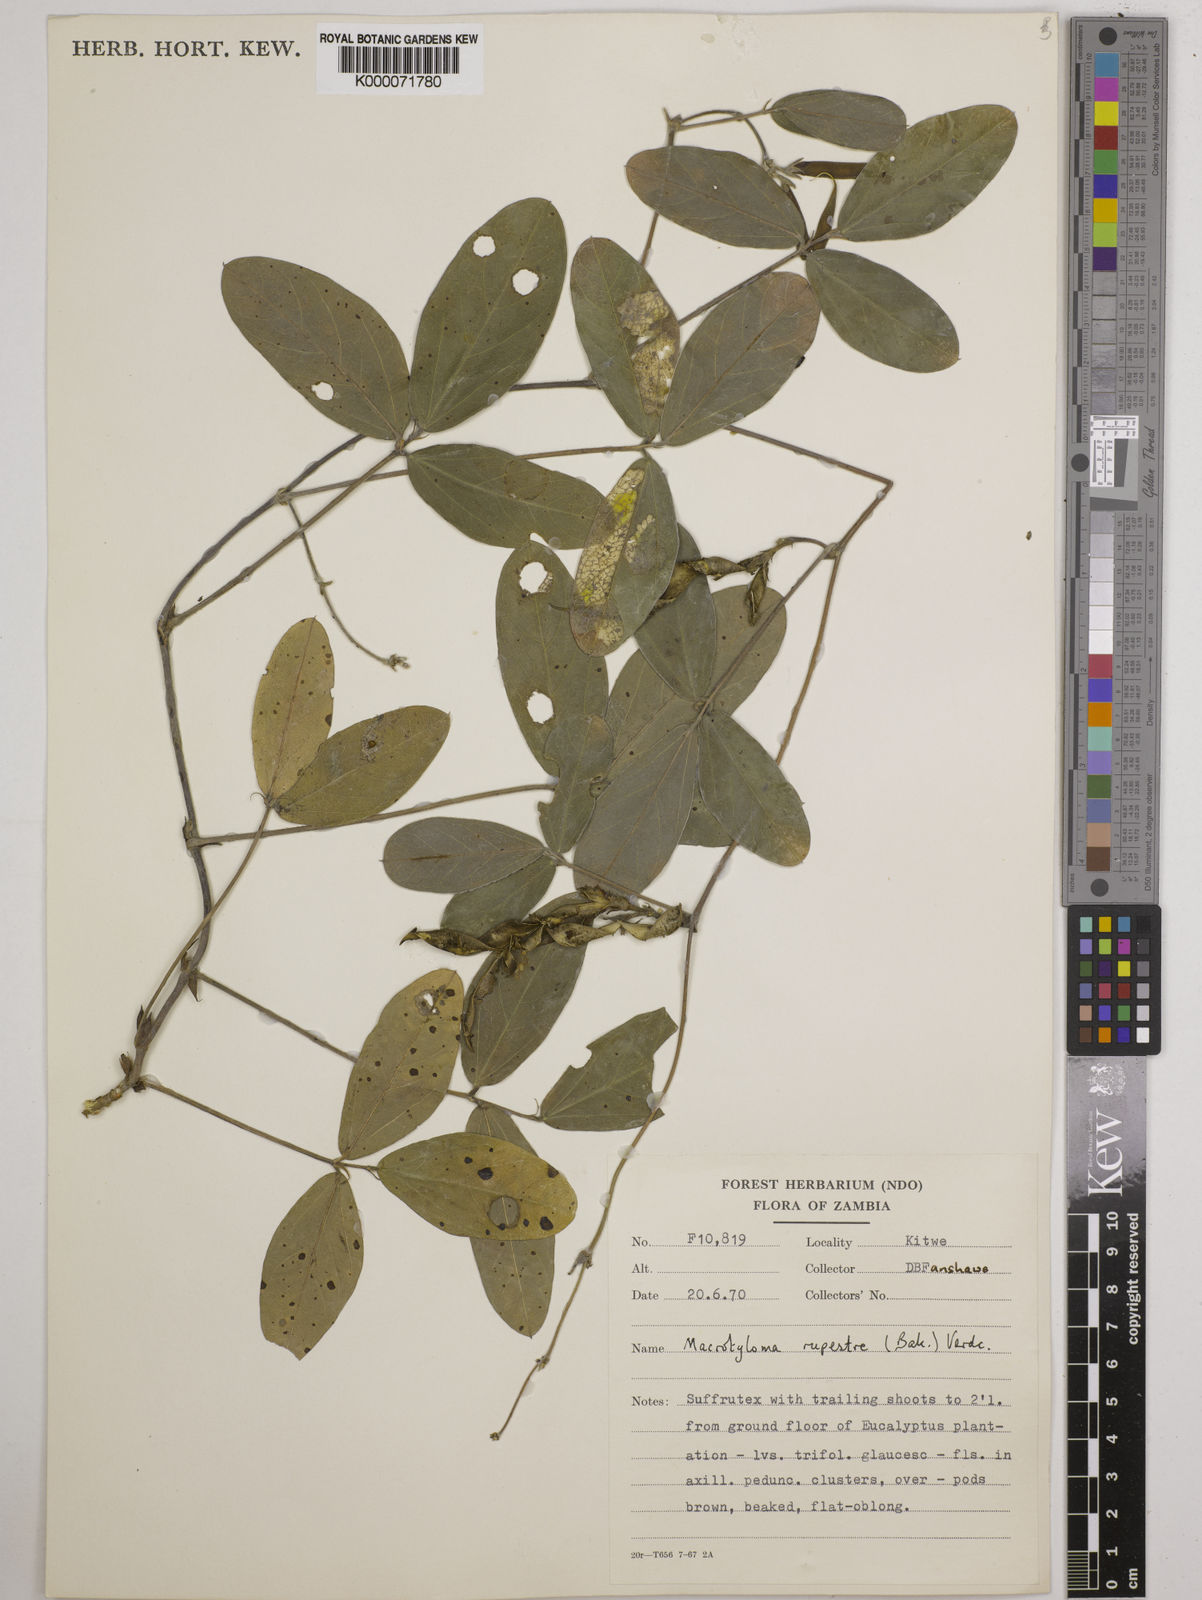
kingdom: Plantae
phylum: Tracheophyta
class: Magnoliopsida
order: Fabales
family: Fabaceae
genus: Macrotyloma
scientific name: Macrotyloma rupestre
